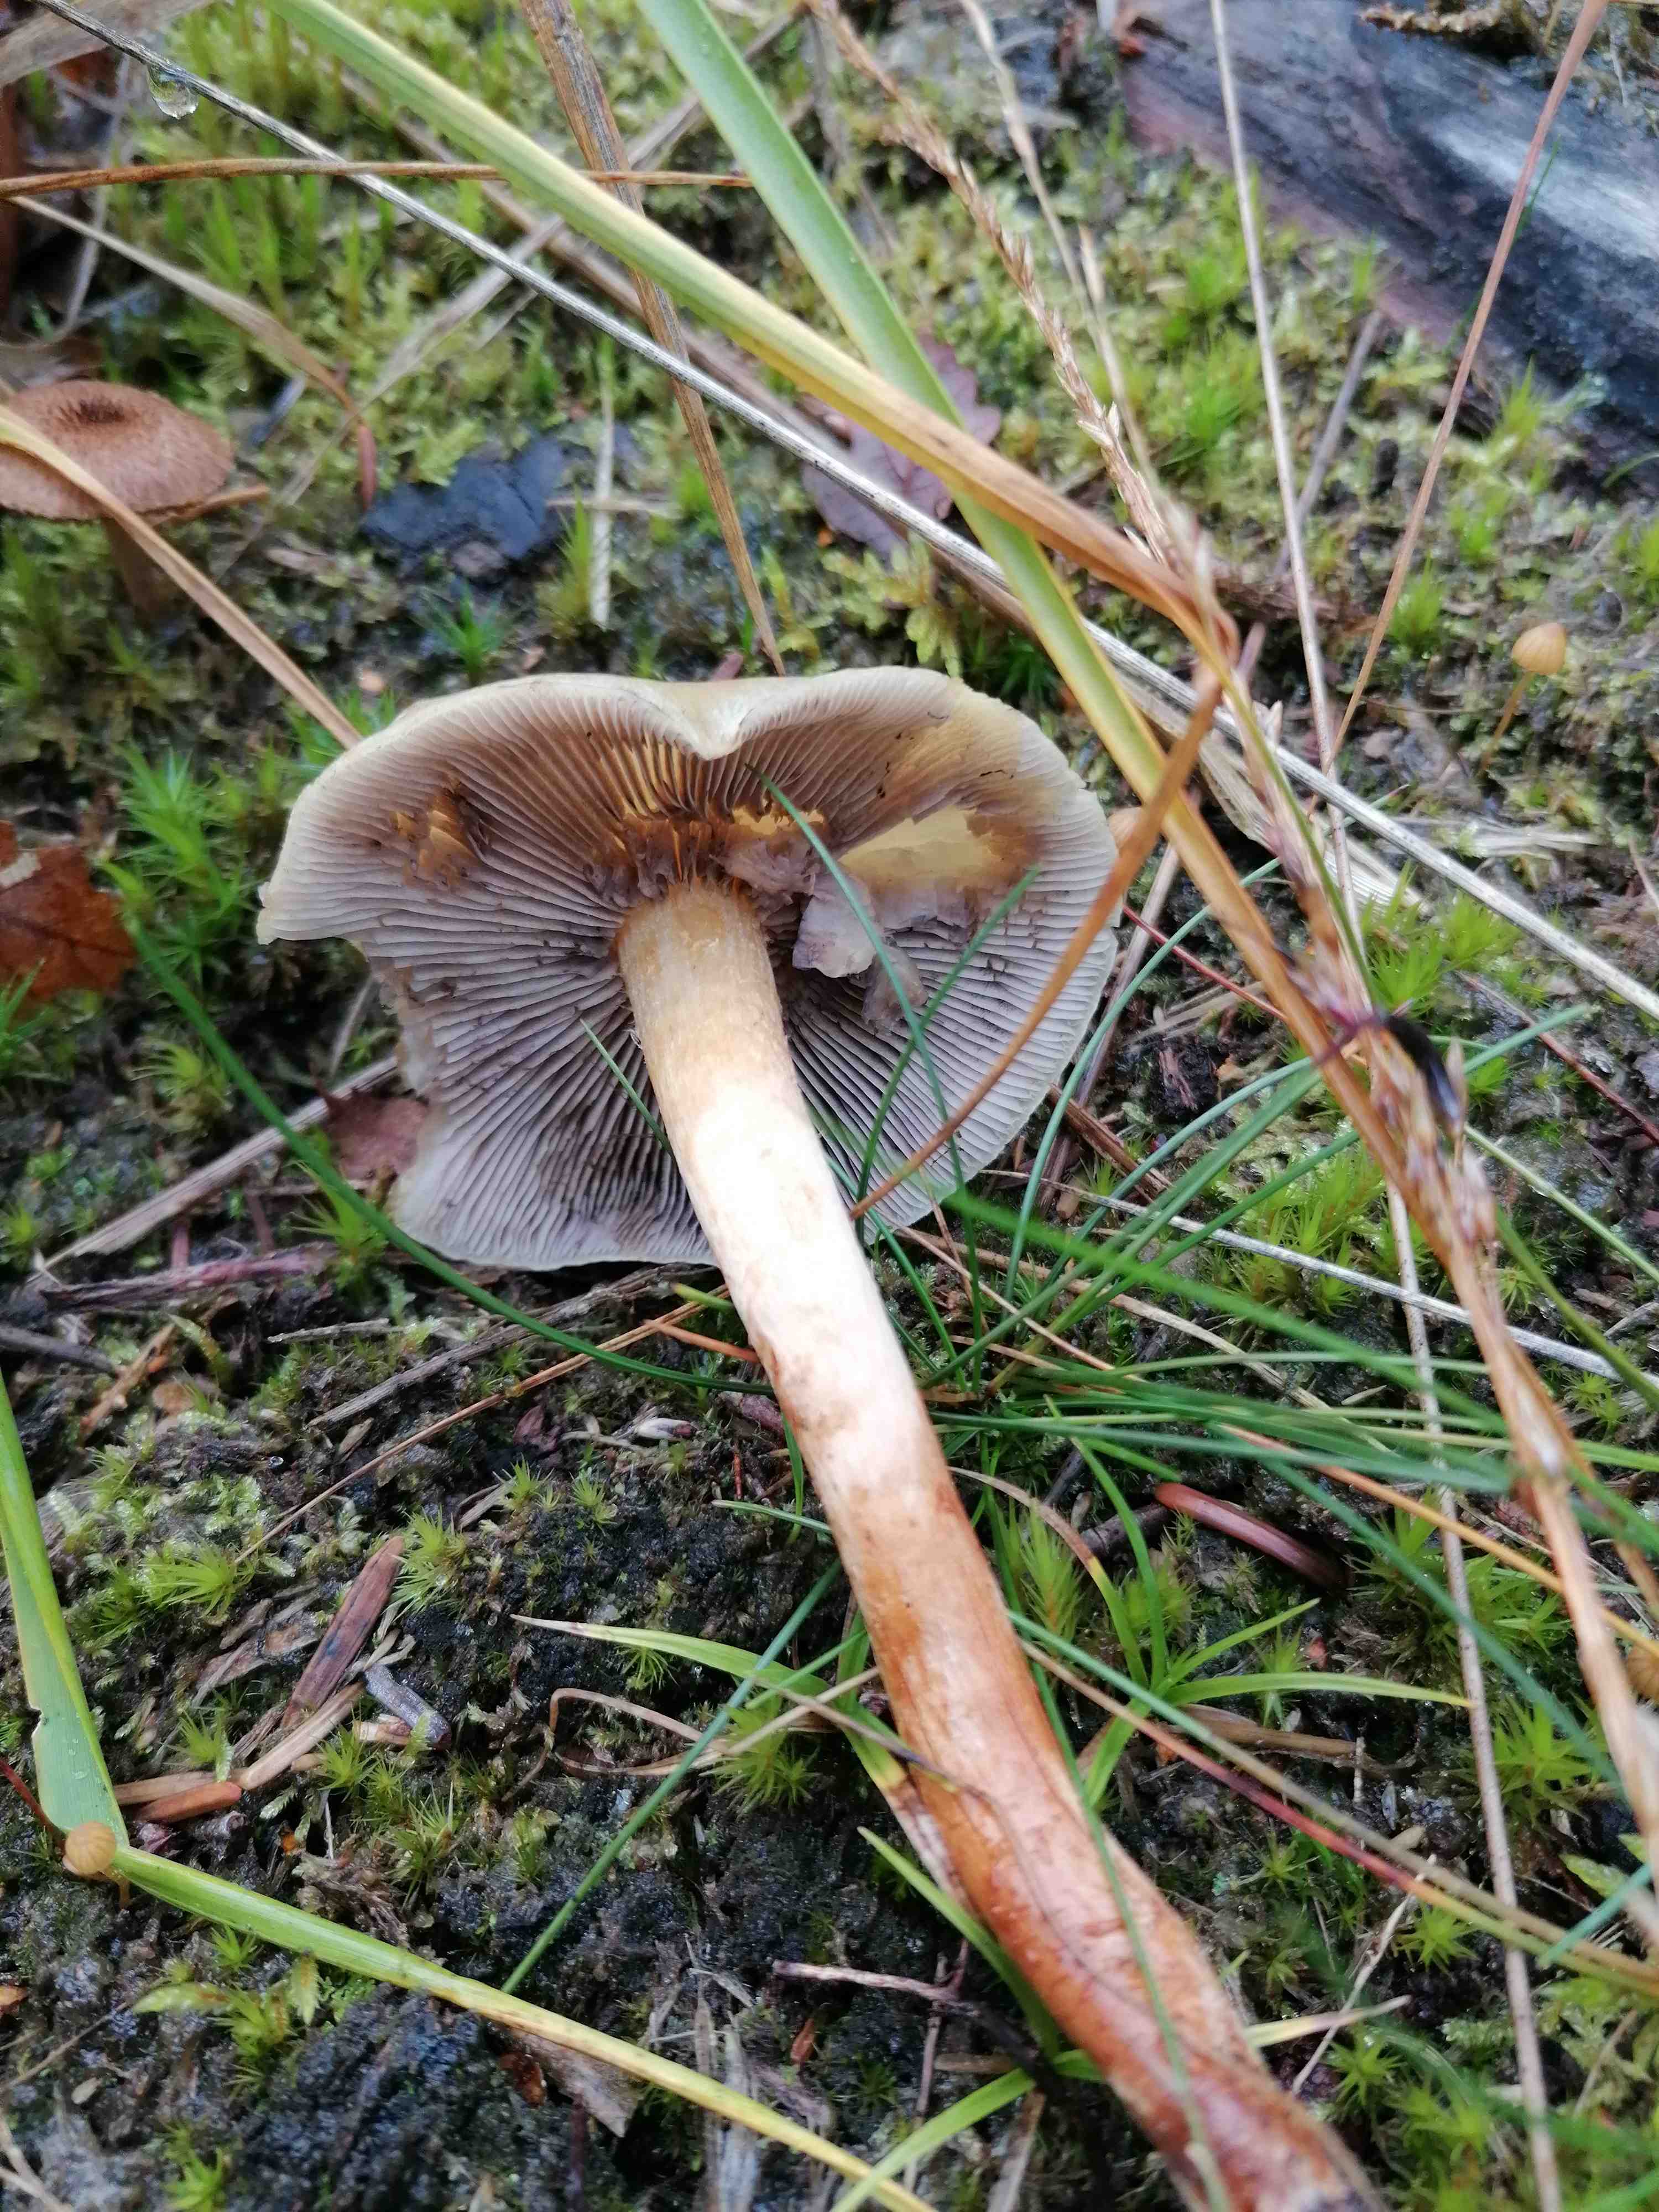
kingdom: Fungi
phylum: Basidiomycota
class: Agaricomycetes
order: Agaricales
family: Strophariaceae
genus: Hypholoma
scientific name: Hypholoma capnoides
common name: gran-svovlhat
